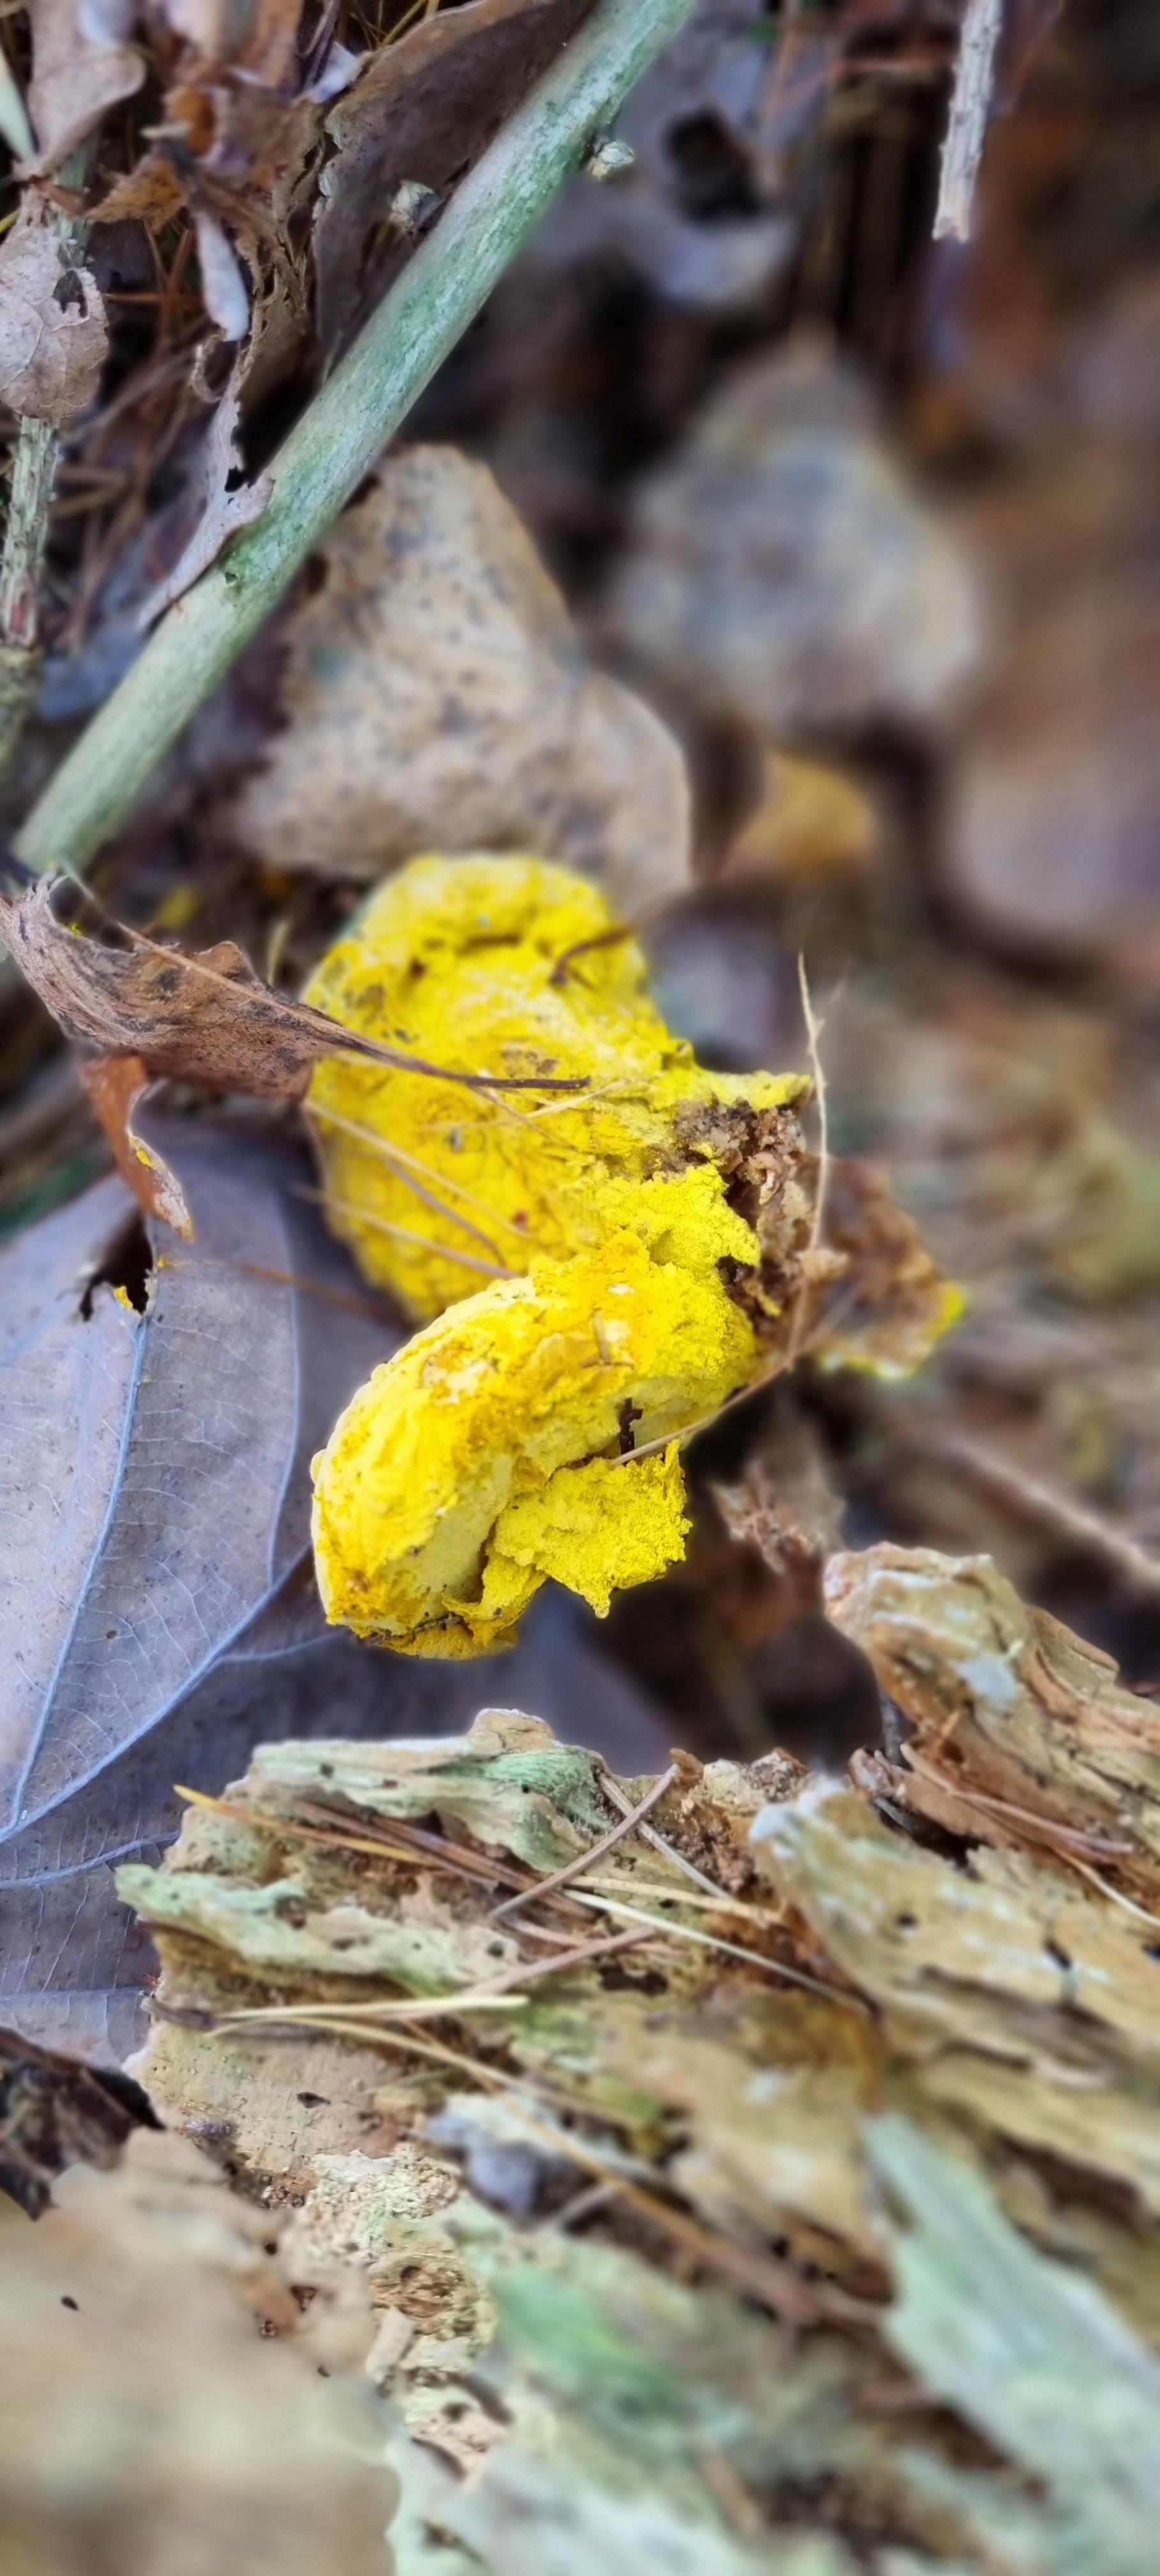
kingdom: Fungi
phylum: Ascomycota
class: Sordariomycetes
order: Hypocreales
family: Hypocreaceae
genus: Hypomyces
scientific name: Hypomyces
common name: snylteskorpe
